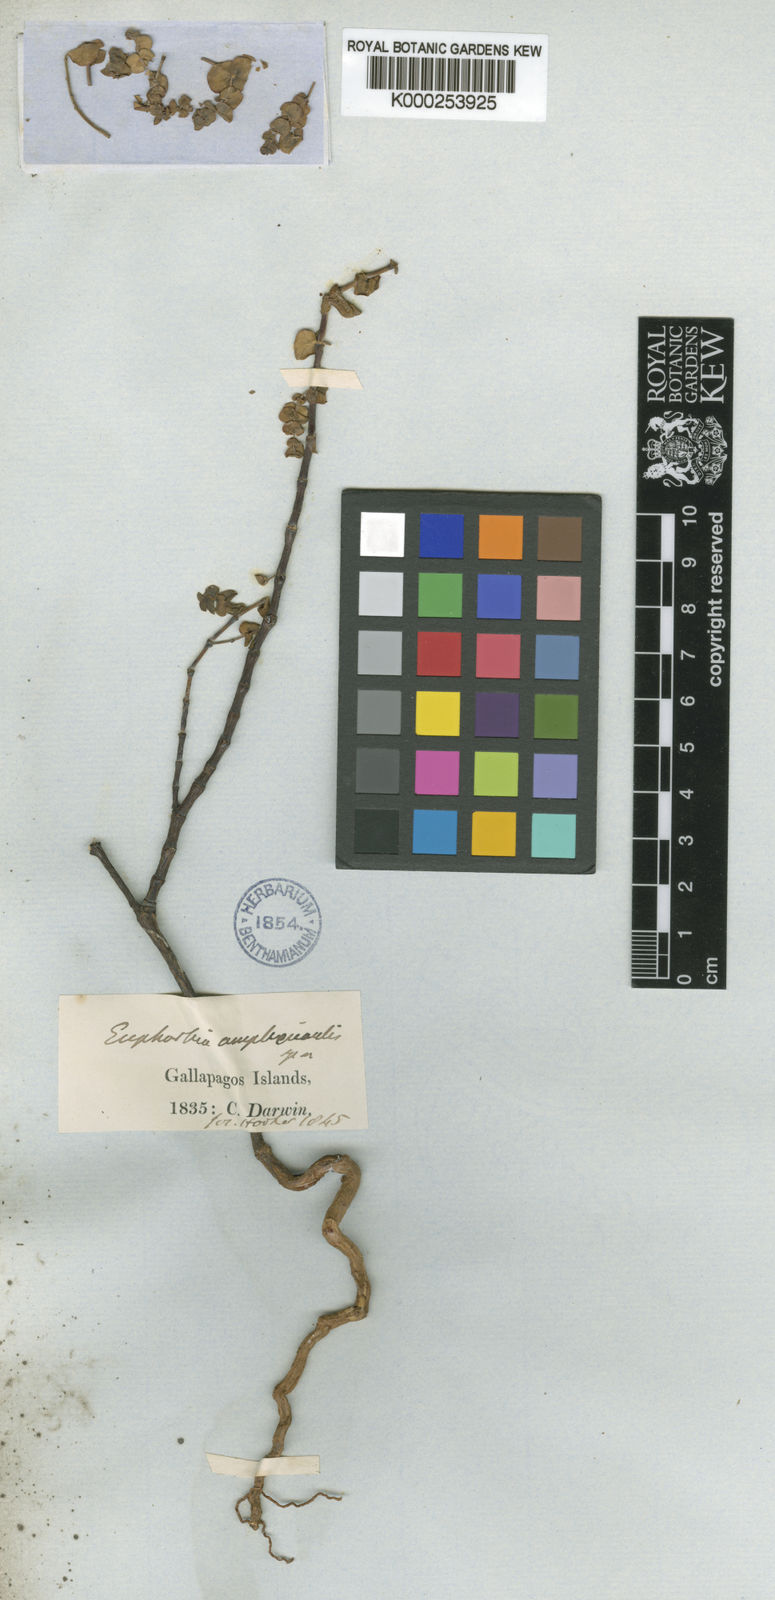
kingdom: Plantae
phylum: Tracheophyta
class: Magnoliopsida
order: Malpighiales
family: Euphorbiaceae
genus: Euphorbia
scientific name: Euphorbia amplexicaulis
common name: Chamaesyce
